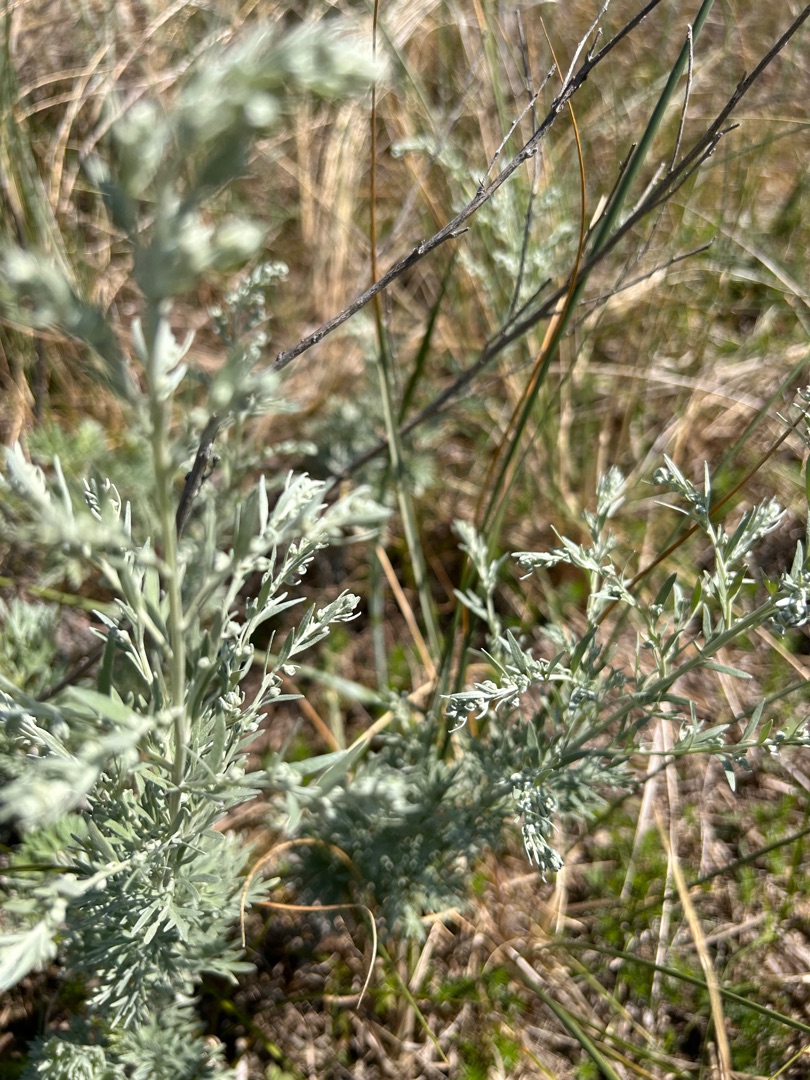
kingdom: Plantae
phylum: Tracheophyta
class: Magnoliopsida
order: Asterales
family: Asteraceae
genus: Artemisia
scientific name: Artemisia maritima
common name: Strandmalurt
